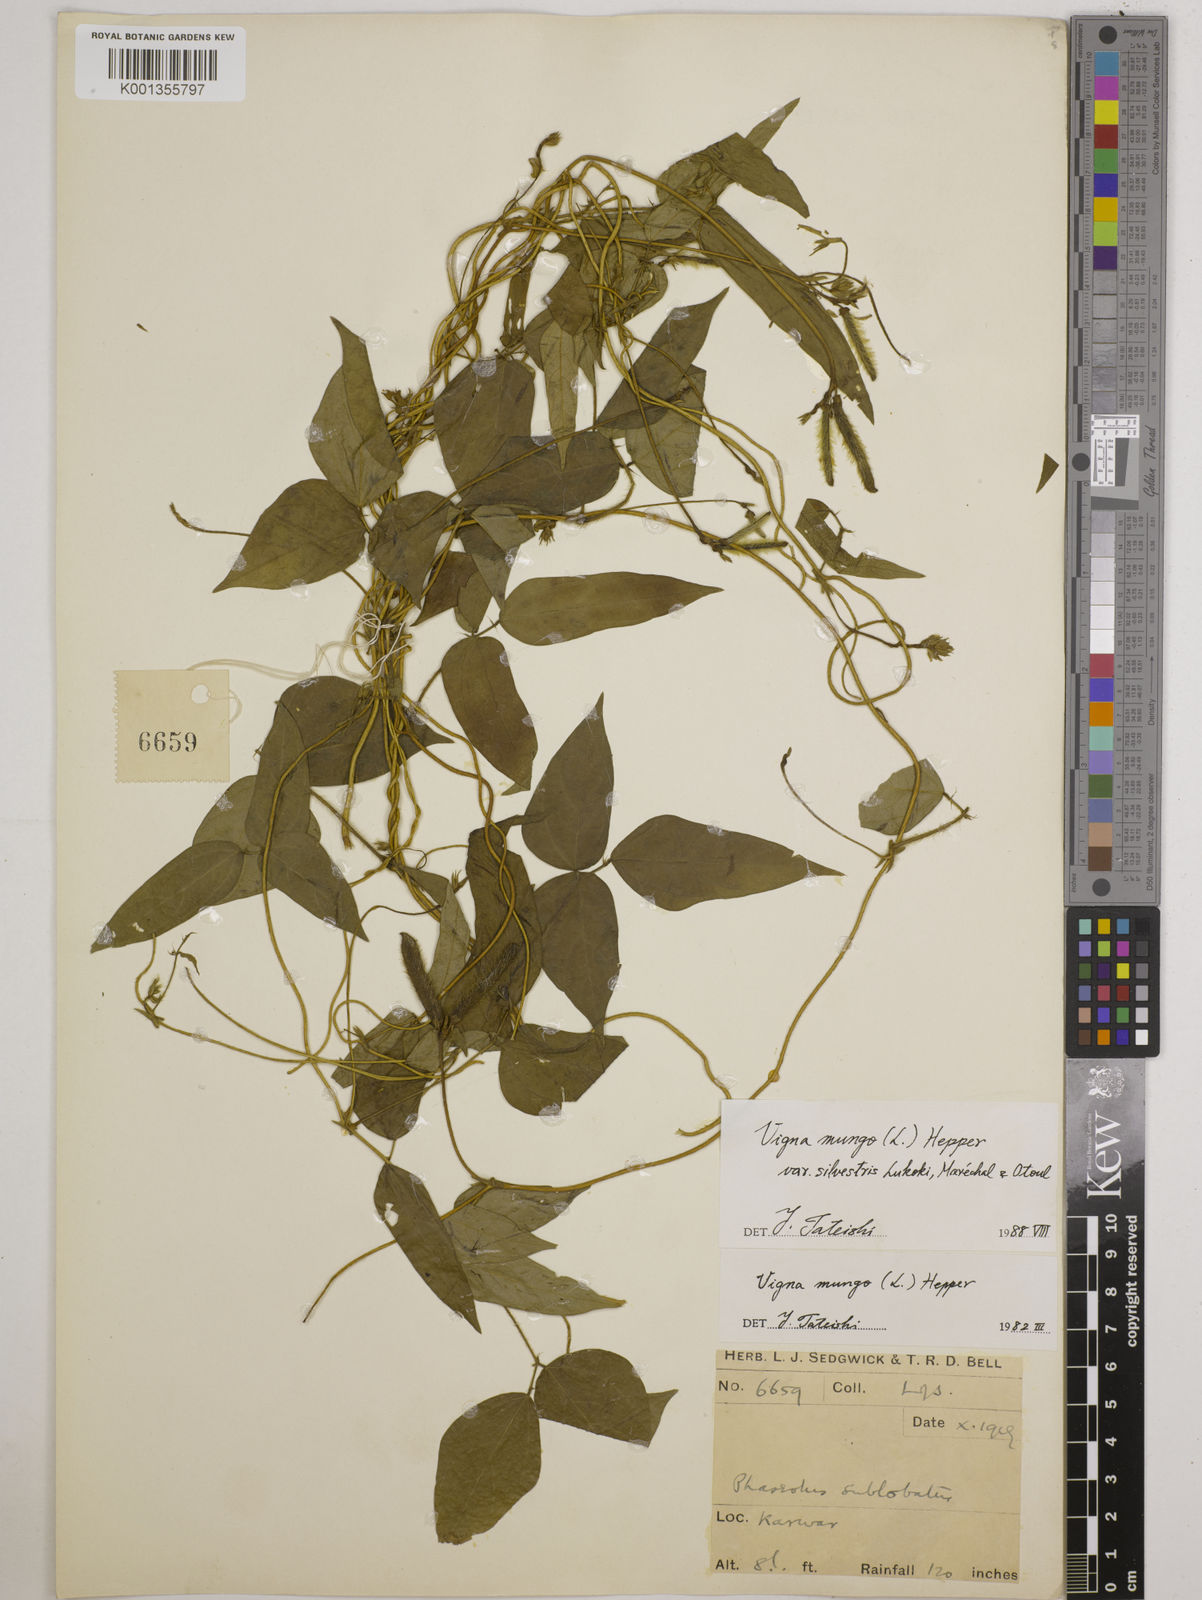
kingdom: Plantae
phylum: Tracheophyta
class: Magnoliopsida
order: Fabales
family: Fabaceae
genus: Vigna
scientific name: Vigna mungo
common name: Black gram
